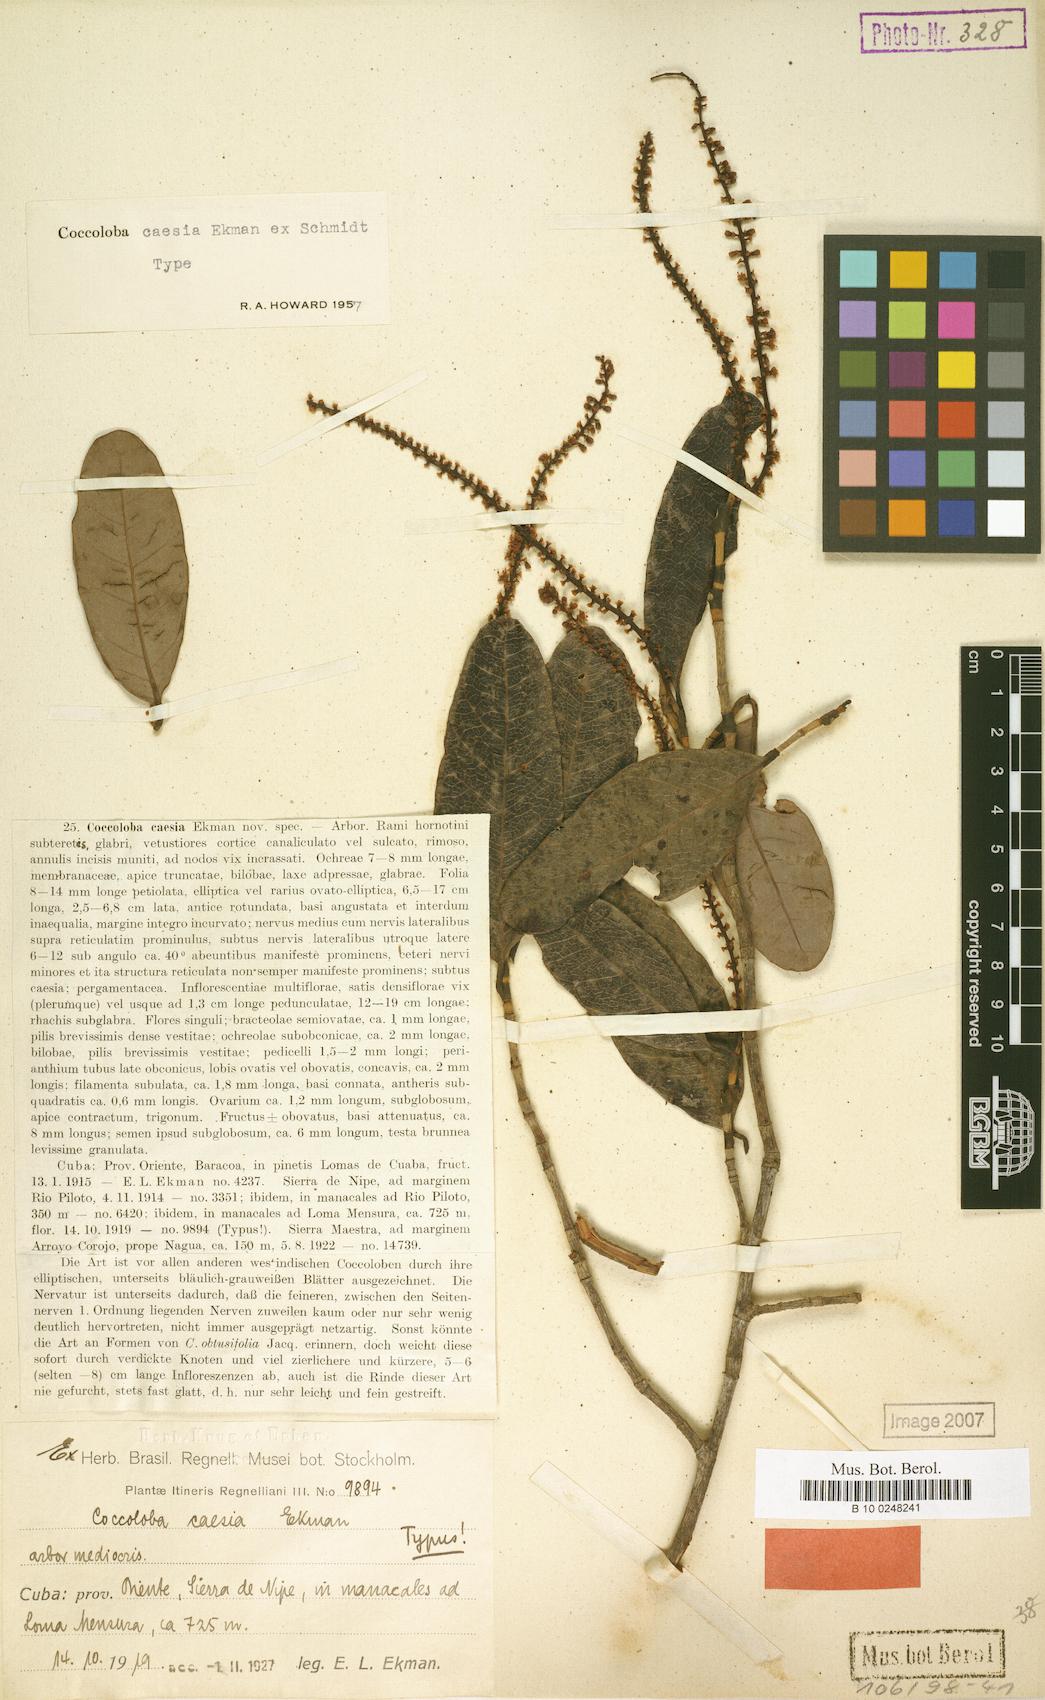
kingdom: Plantae
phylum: Tracheophyta
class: Magnoliopsida
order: Caryophyllales
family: Polygonaceae
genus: Coccoloba
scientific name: Coccoloba caesia
